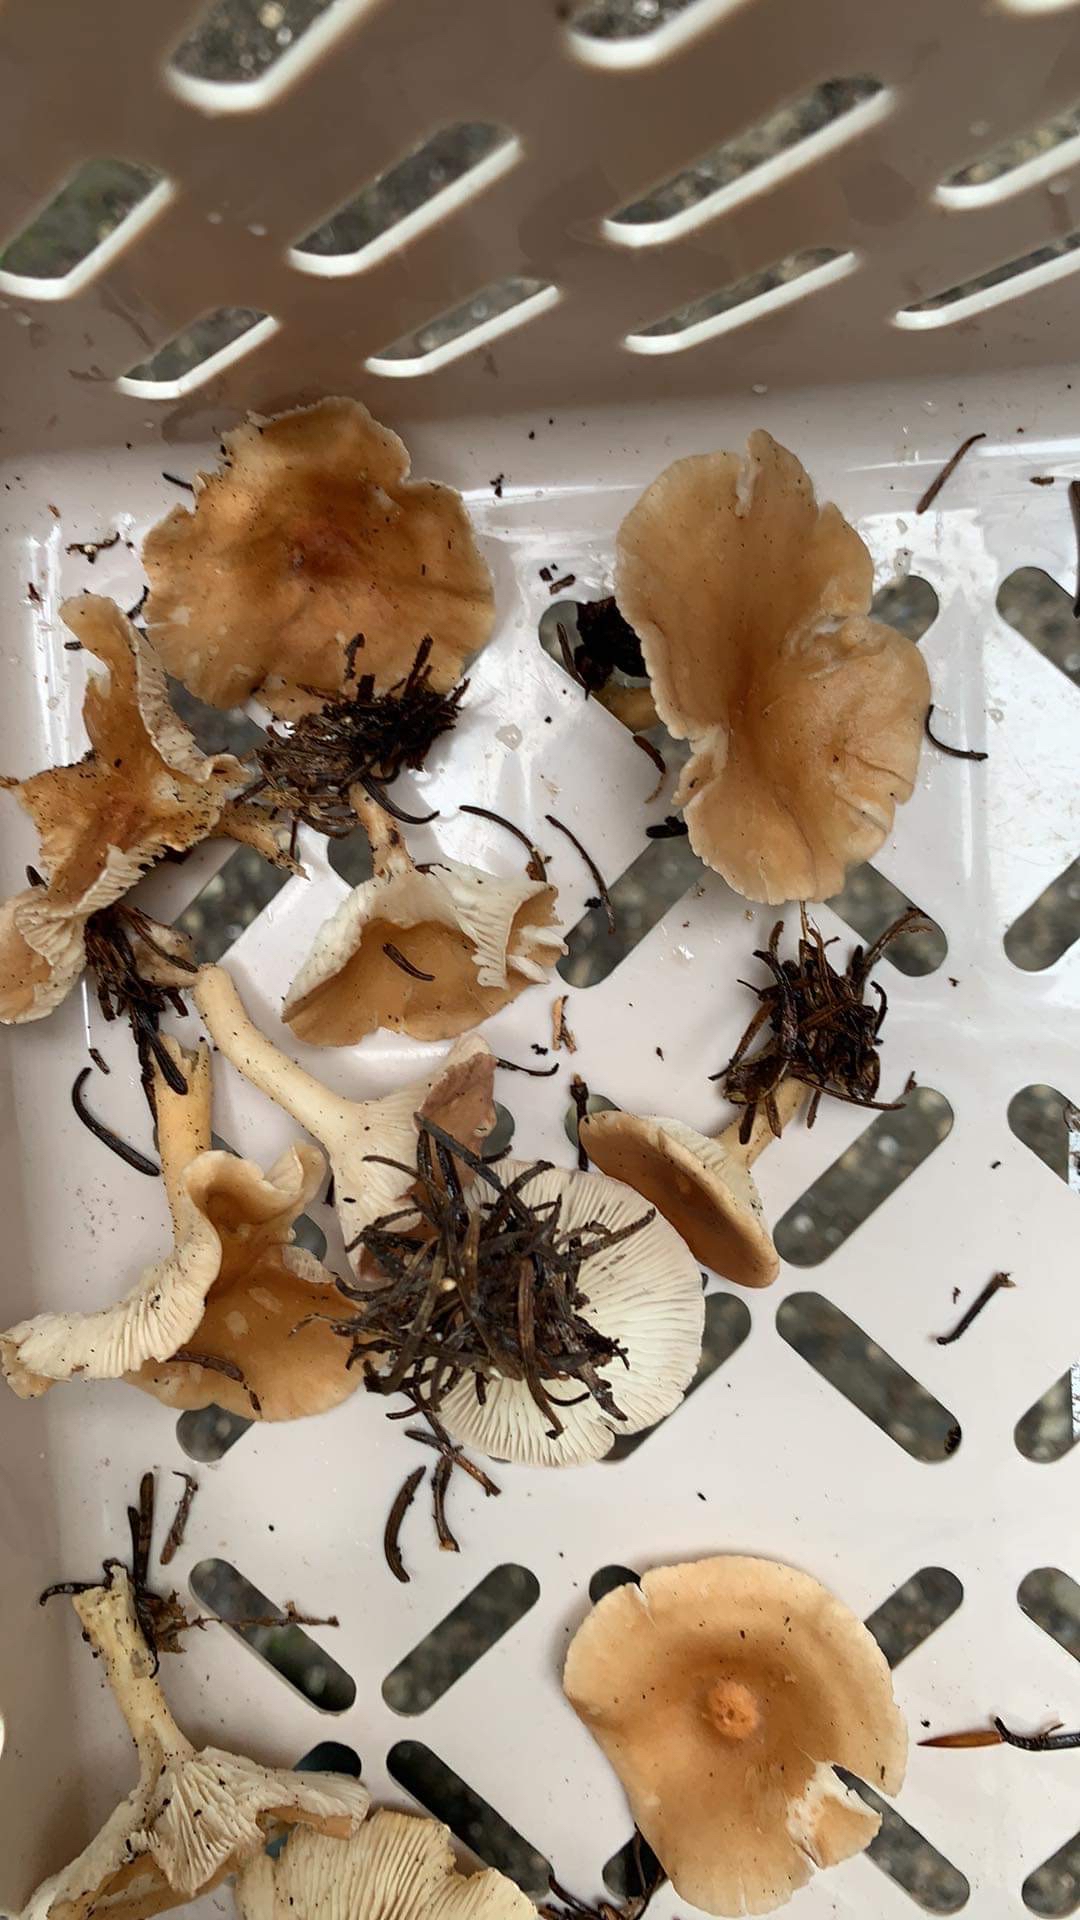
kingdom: Fungi
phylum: Basidiomycota
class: Agaricomycetes
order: Agaricales
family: Tricholomataceae
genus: Paralepista
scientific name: Paralepista flaccida
